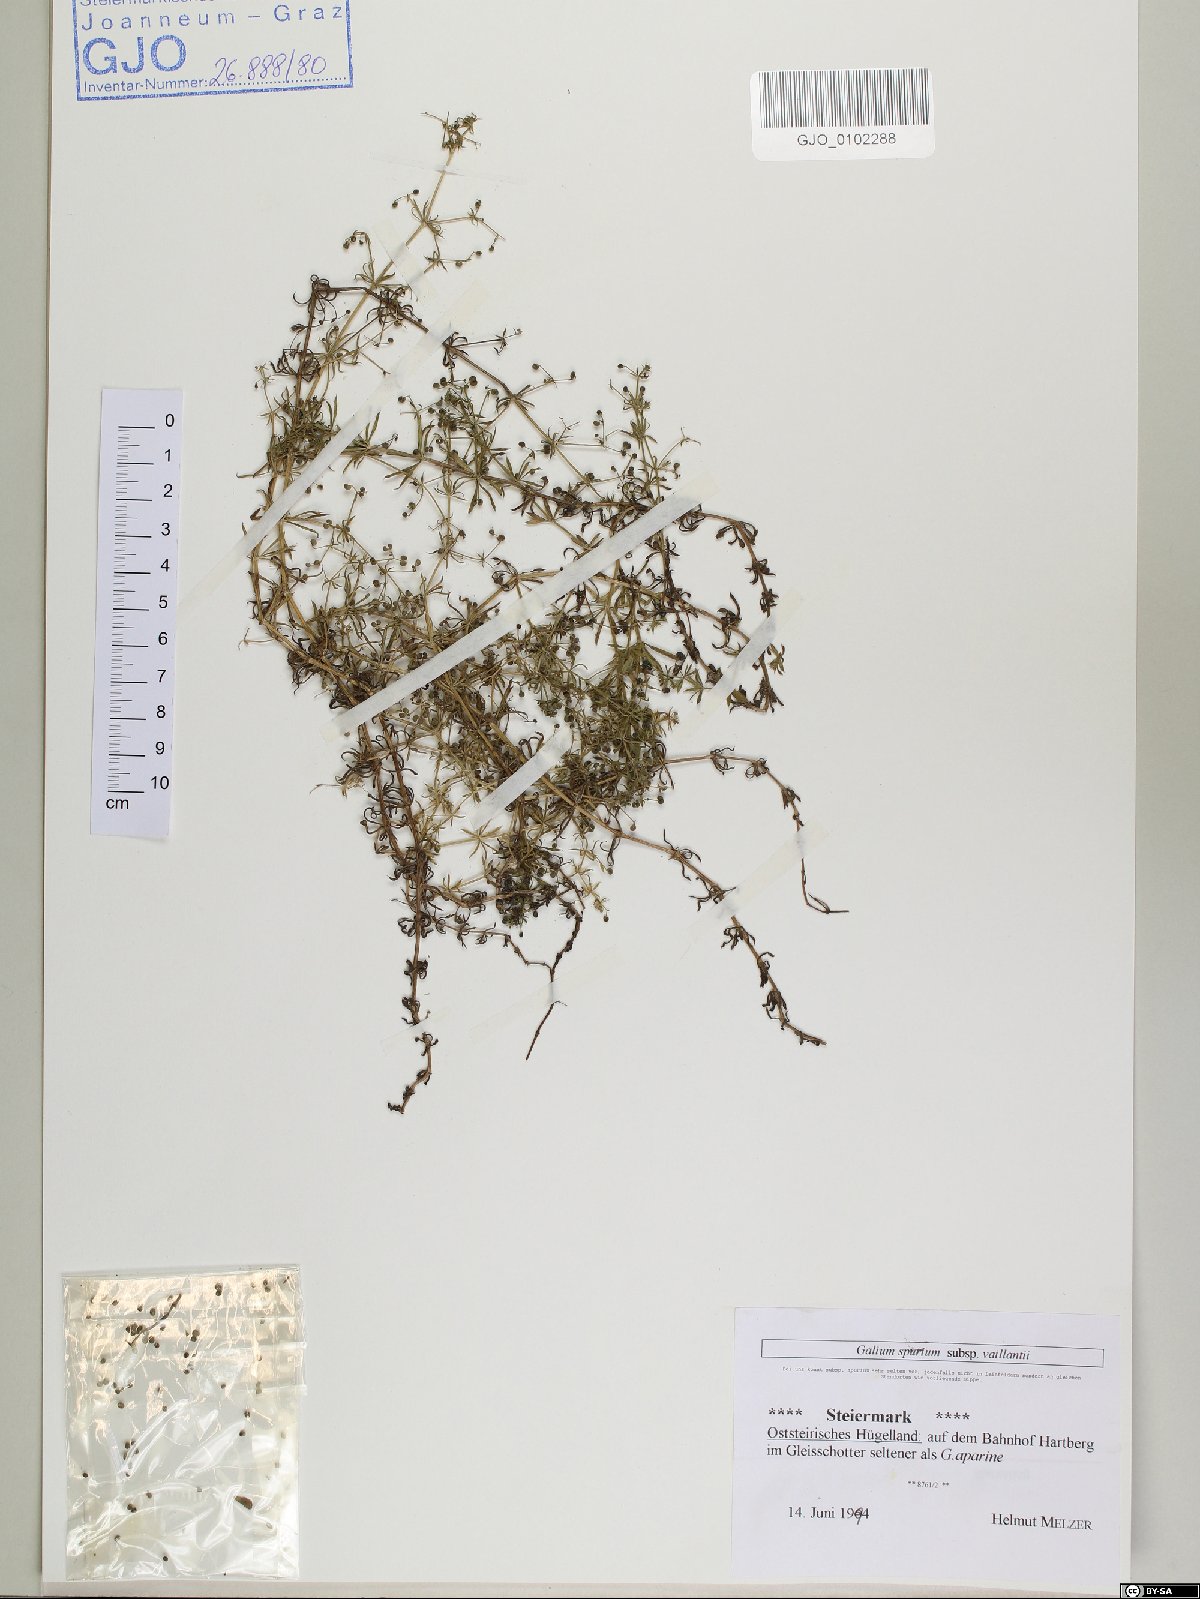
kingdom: Plantae
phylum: Tracheophyta
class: Magnoliopsida
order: Gentianales
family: Rubiaceae
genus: Galium
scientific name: Galium spurium
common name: False cleavers
